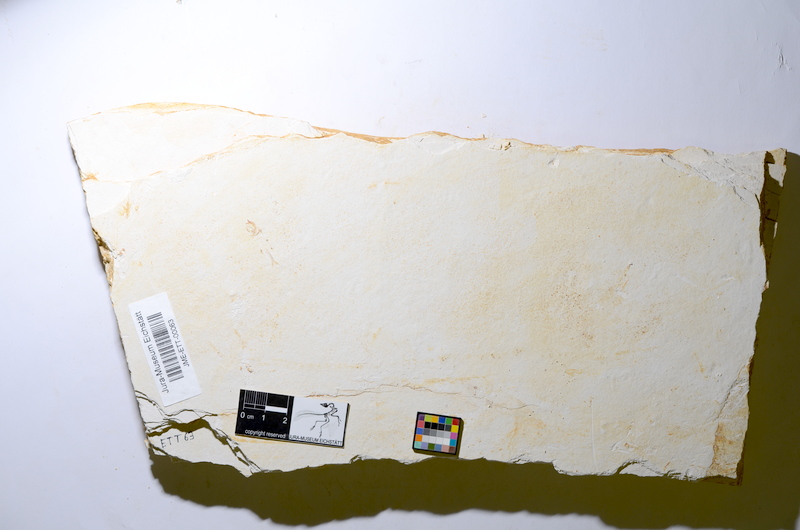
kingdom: Animalia
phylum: Chordata
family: Ascalaboidae
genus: Ebertichthys
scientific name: Ebertichthys ettlingensis
